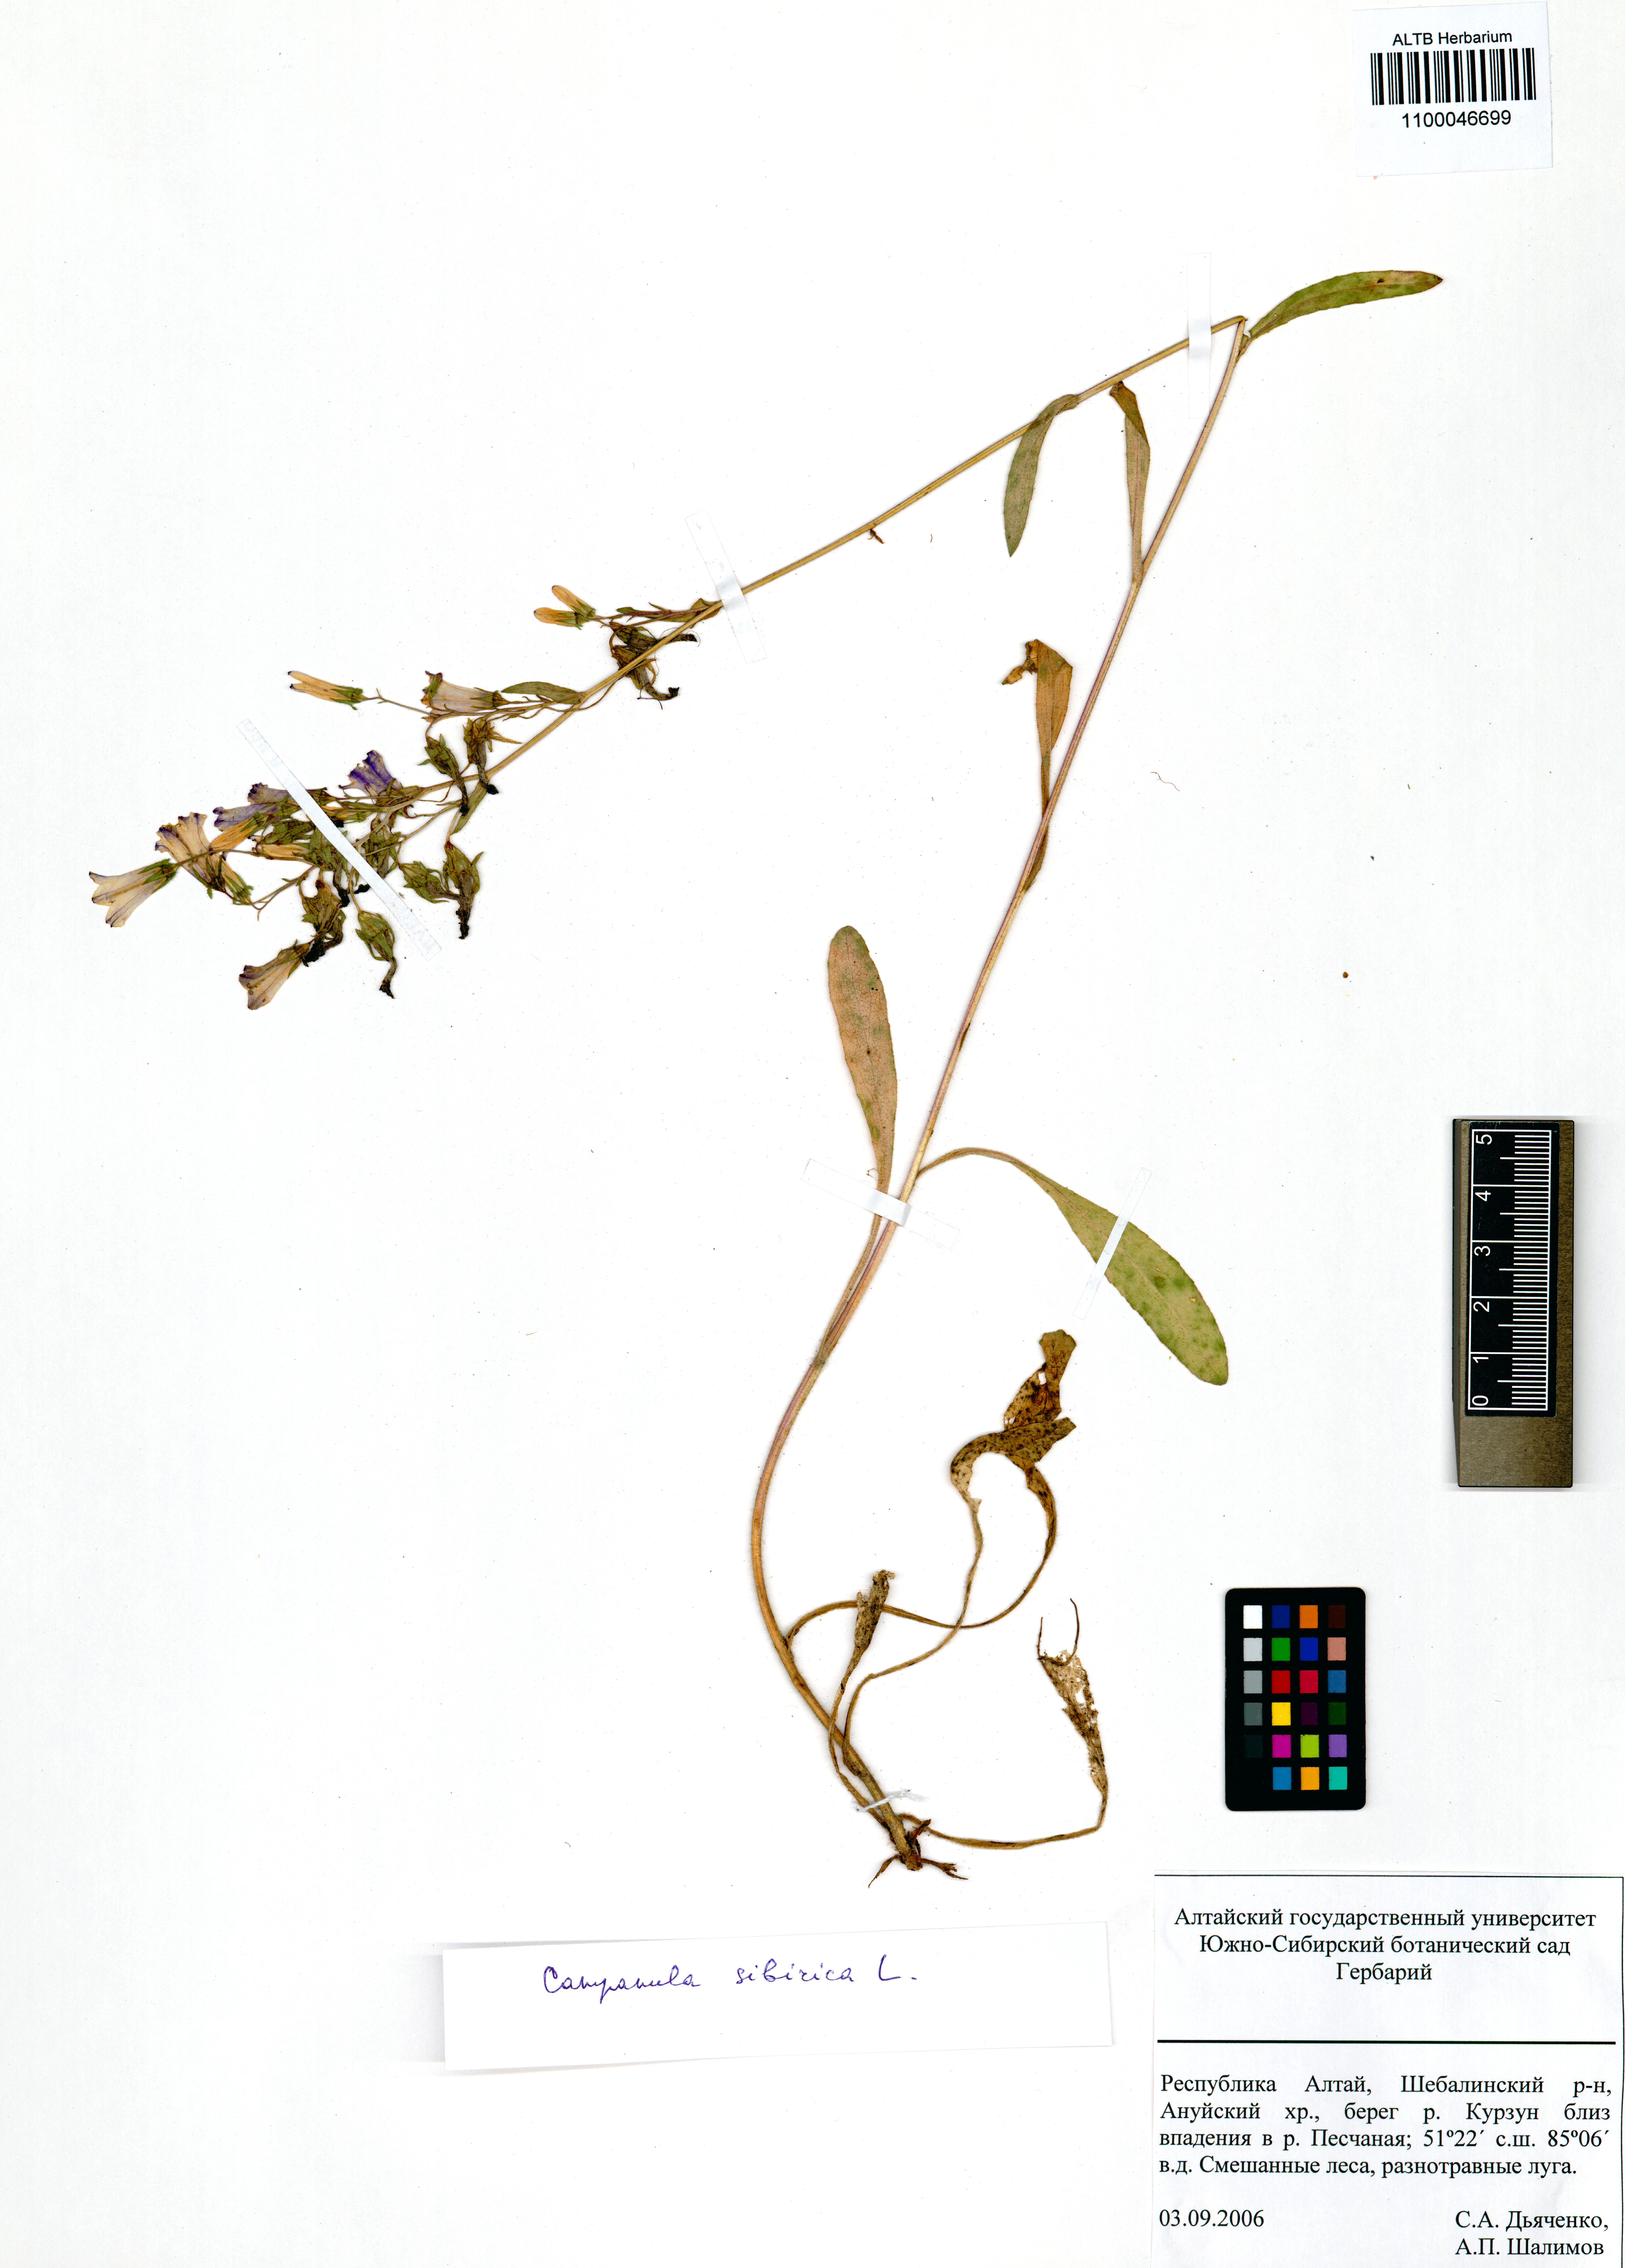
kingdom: Plantae
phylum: Tracheophyta
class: Magnoliopsida
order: Asterales
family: Campanulaceae
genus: Campanula
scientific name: Campanula sibirica
